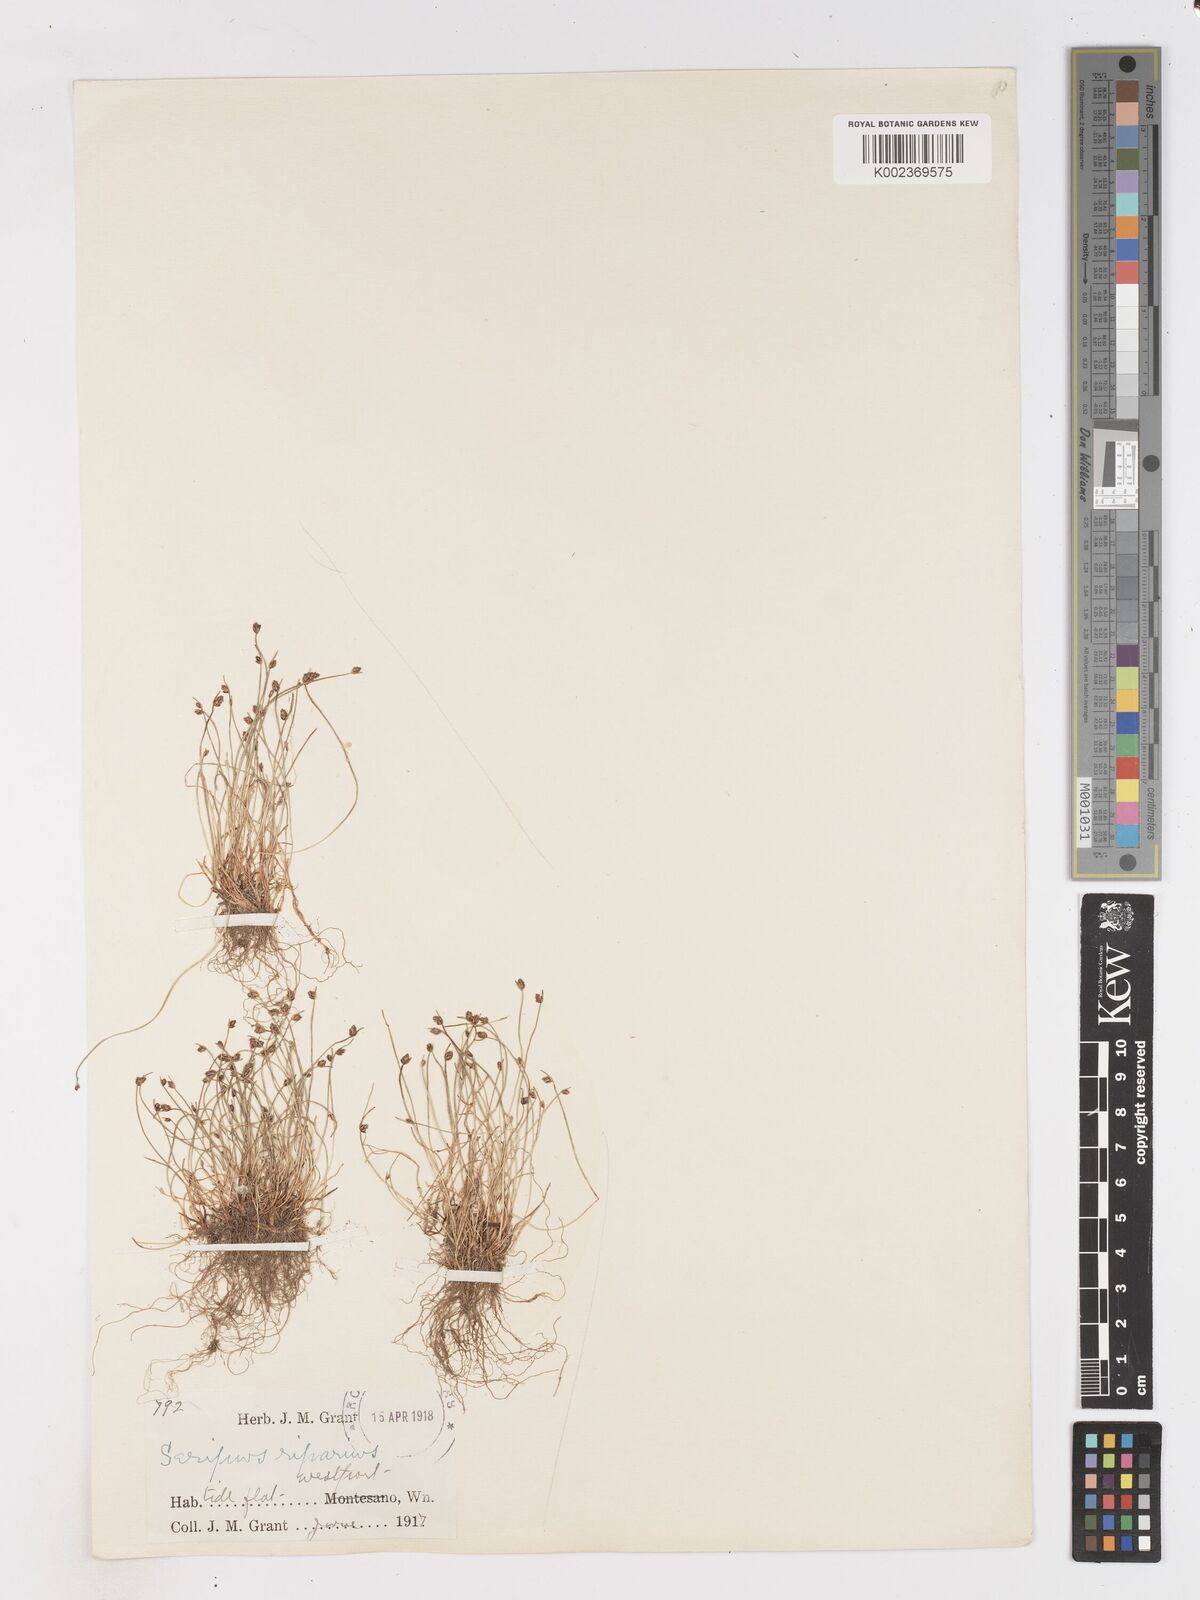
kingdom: Plantae
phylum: Tracheophyta
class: Liliopsida
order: Poales
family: Cyperaceae
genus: Isolepis
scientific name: Isolepis cernua
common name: Slender club-rush
